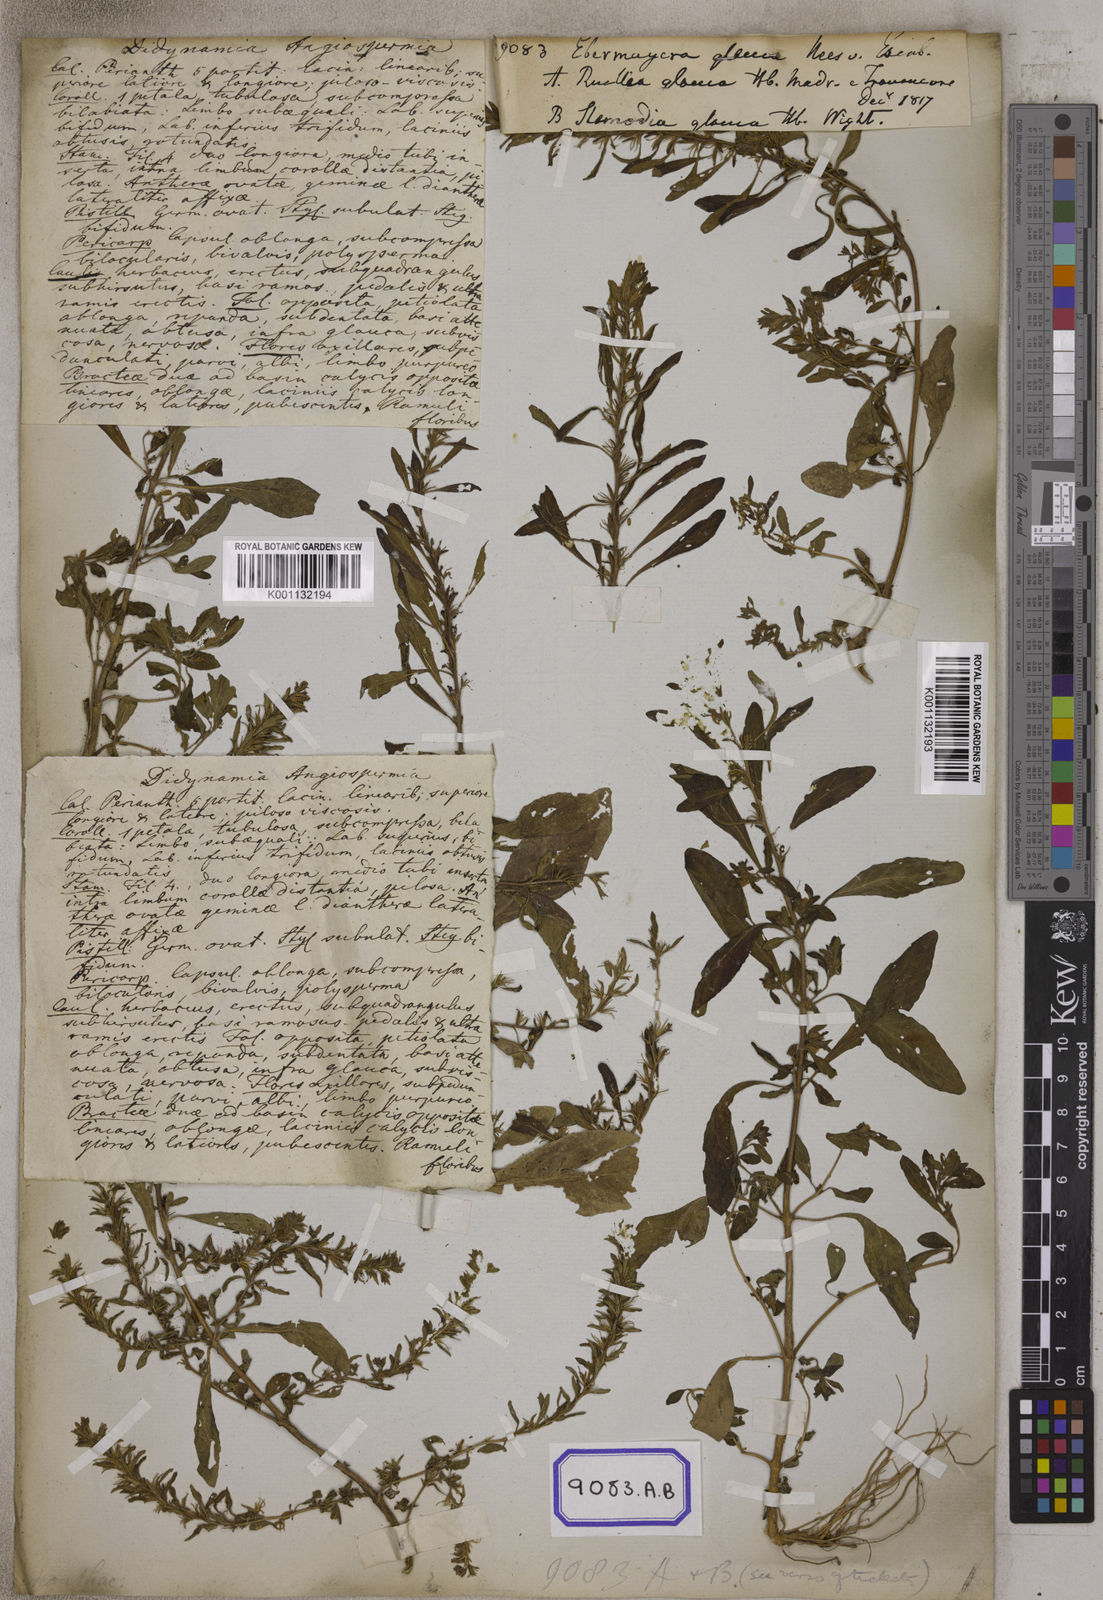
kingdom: Plantae
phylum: Tracheophyta
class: Magnoliopsida
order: Lamiales
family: Acanthaceae
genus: Staurogyne
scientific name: Staurogyne spathulata
